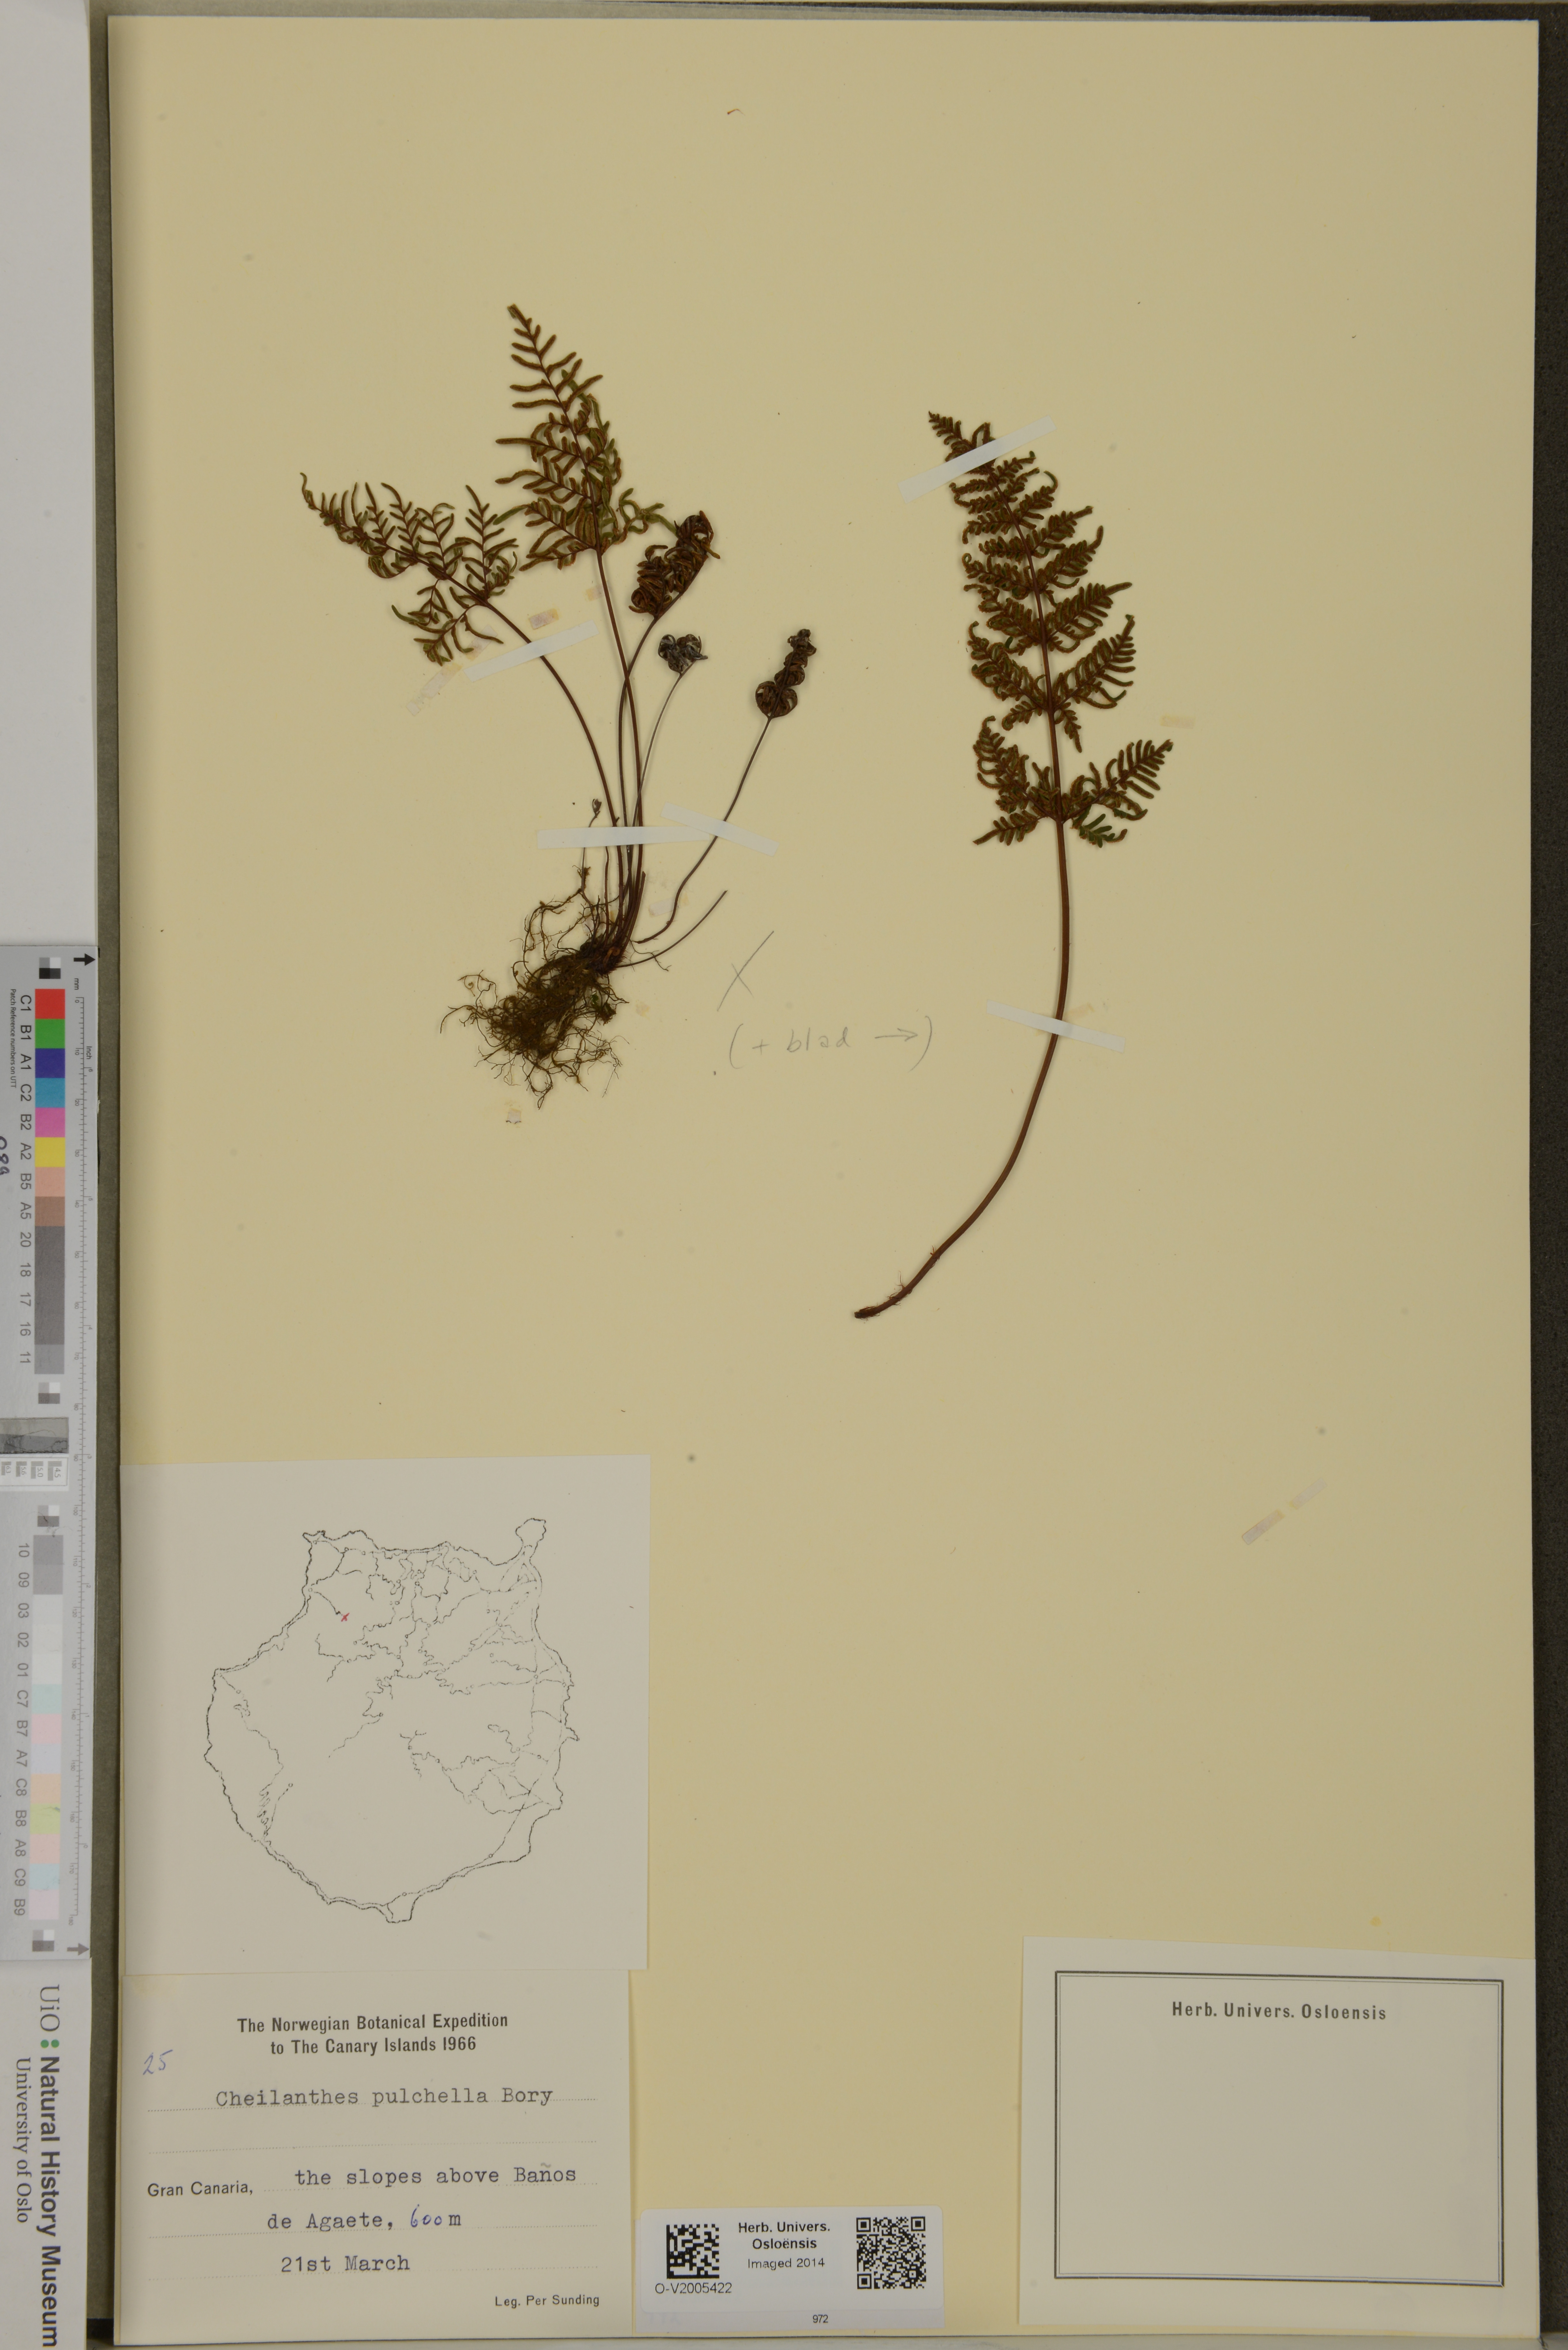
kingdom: Plantae
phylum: Tracheophyta
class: Polypodiopsida
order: Polypodiales
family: Pteridaceae
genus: Cheilanthes
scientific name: Cheilanthes pulchella
